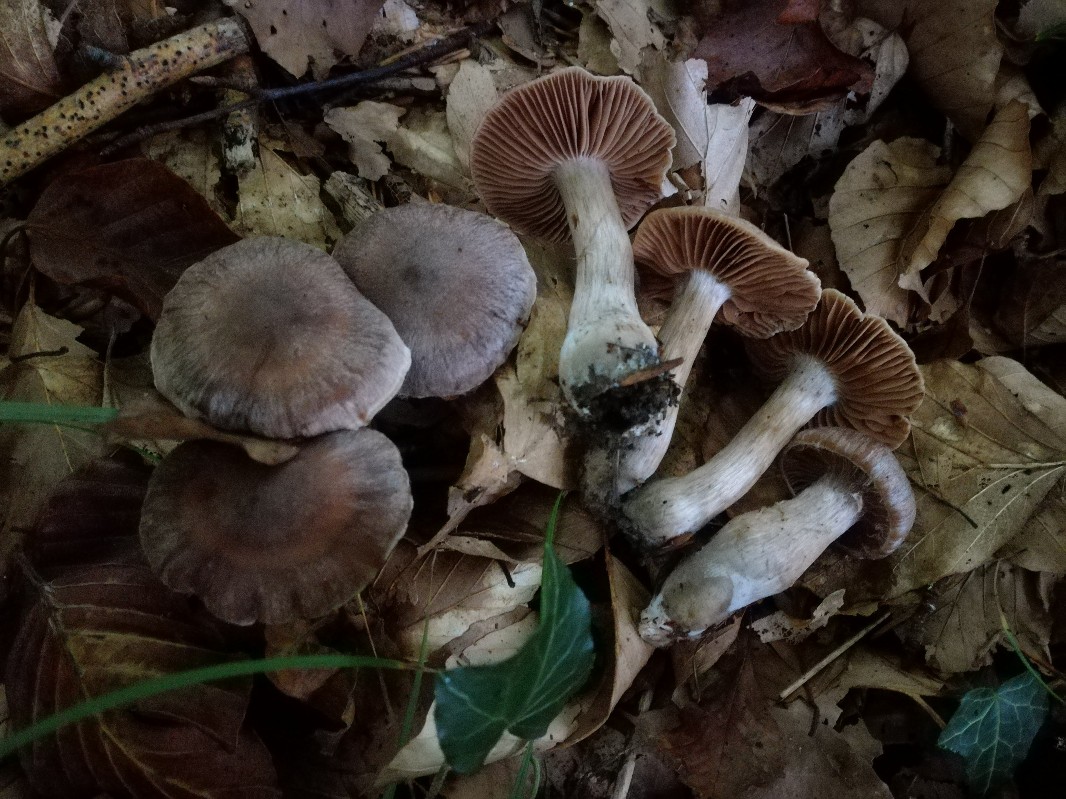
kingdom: Fungi
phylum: Basidiomycota
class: Agaricomycetes
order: Agaricales
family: Cortinariaceae
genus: Cortinarius
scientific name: Cortinarius torvoides
